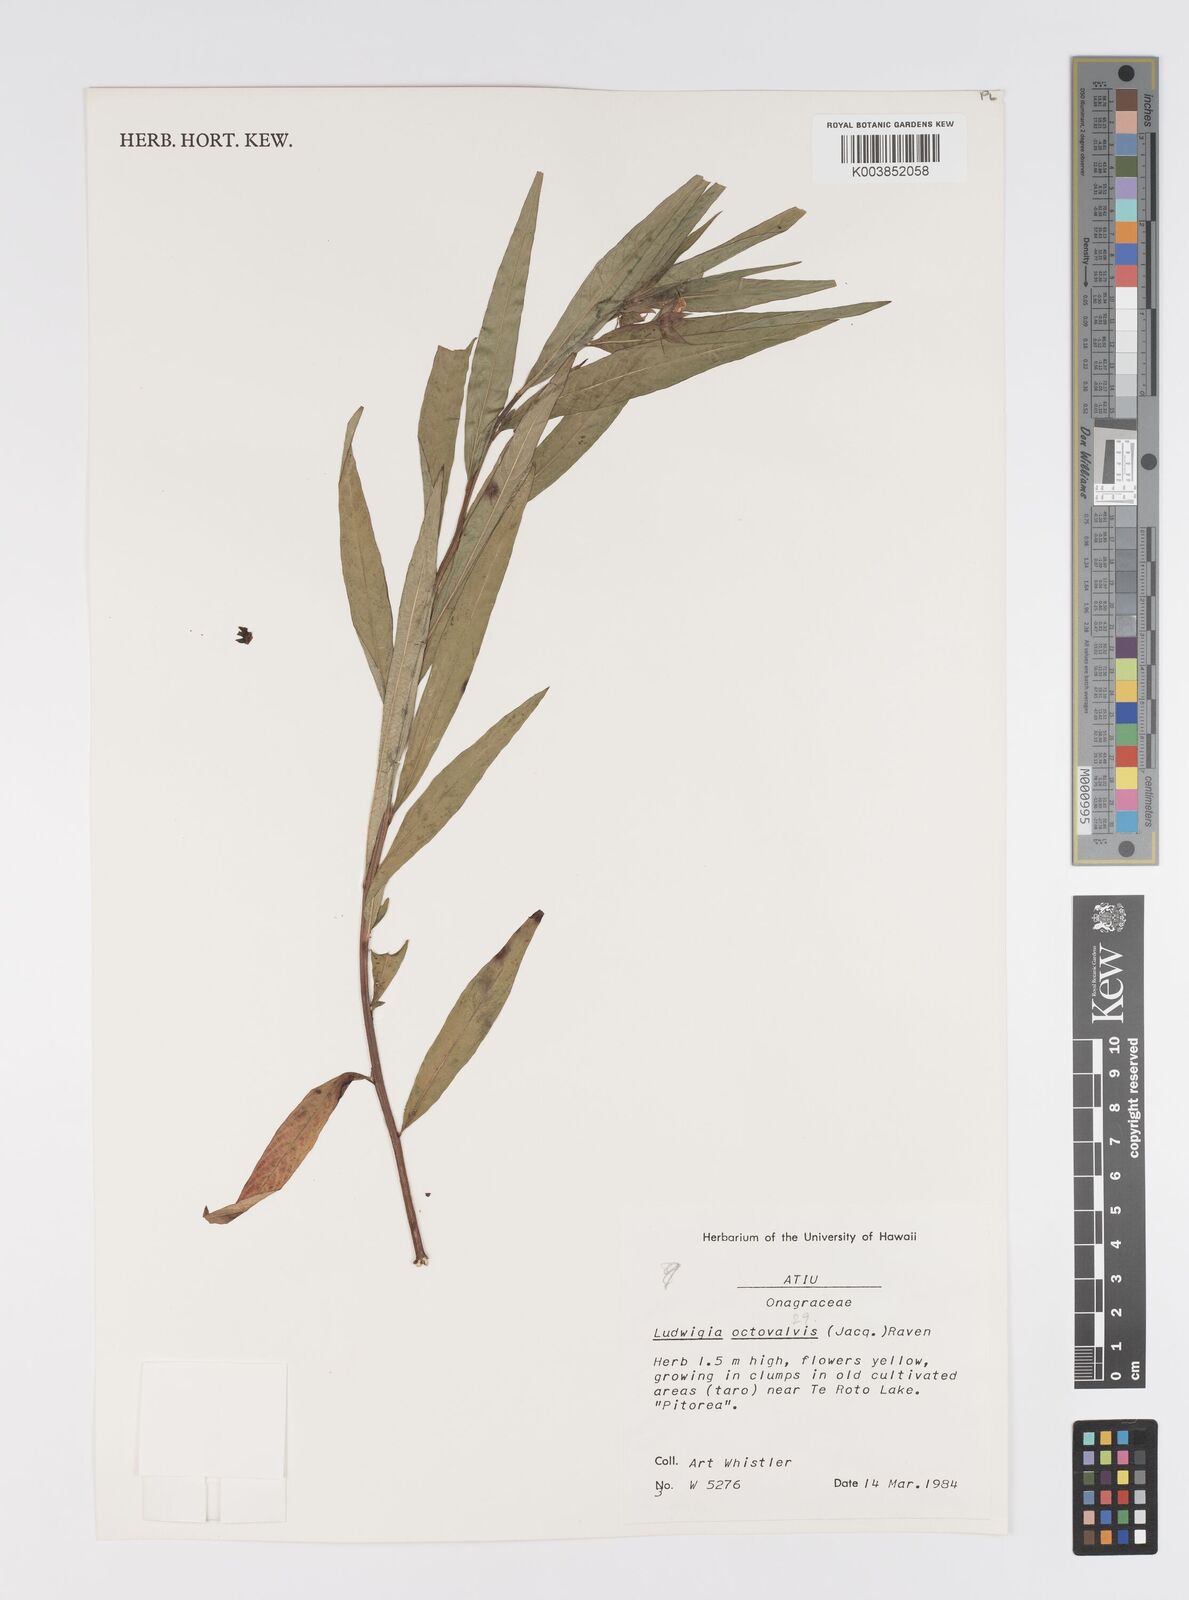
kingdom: Plantae
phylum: Tracheophyta
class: Magnoliopsida
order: Myrtales
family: Onagraceae
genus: Ludwigia
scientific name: Ludwigia octovalvis
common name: Water-primrose
